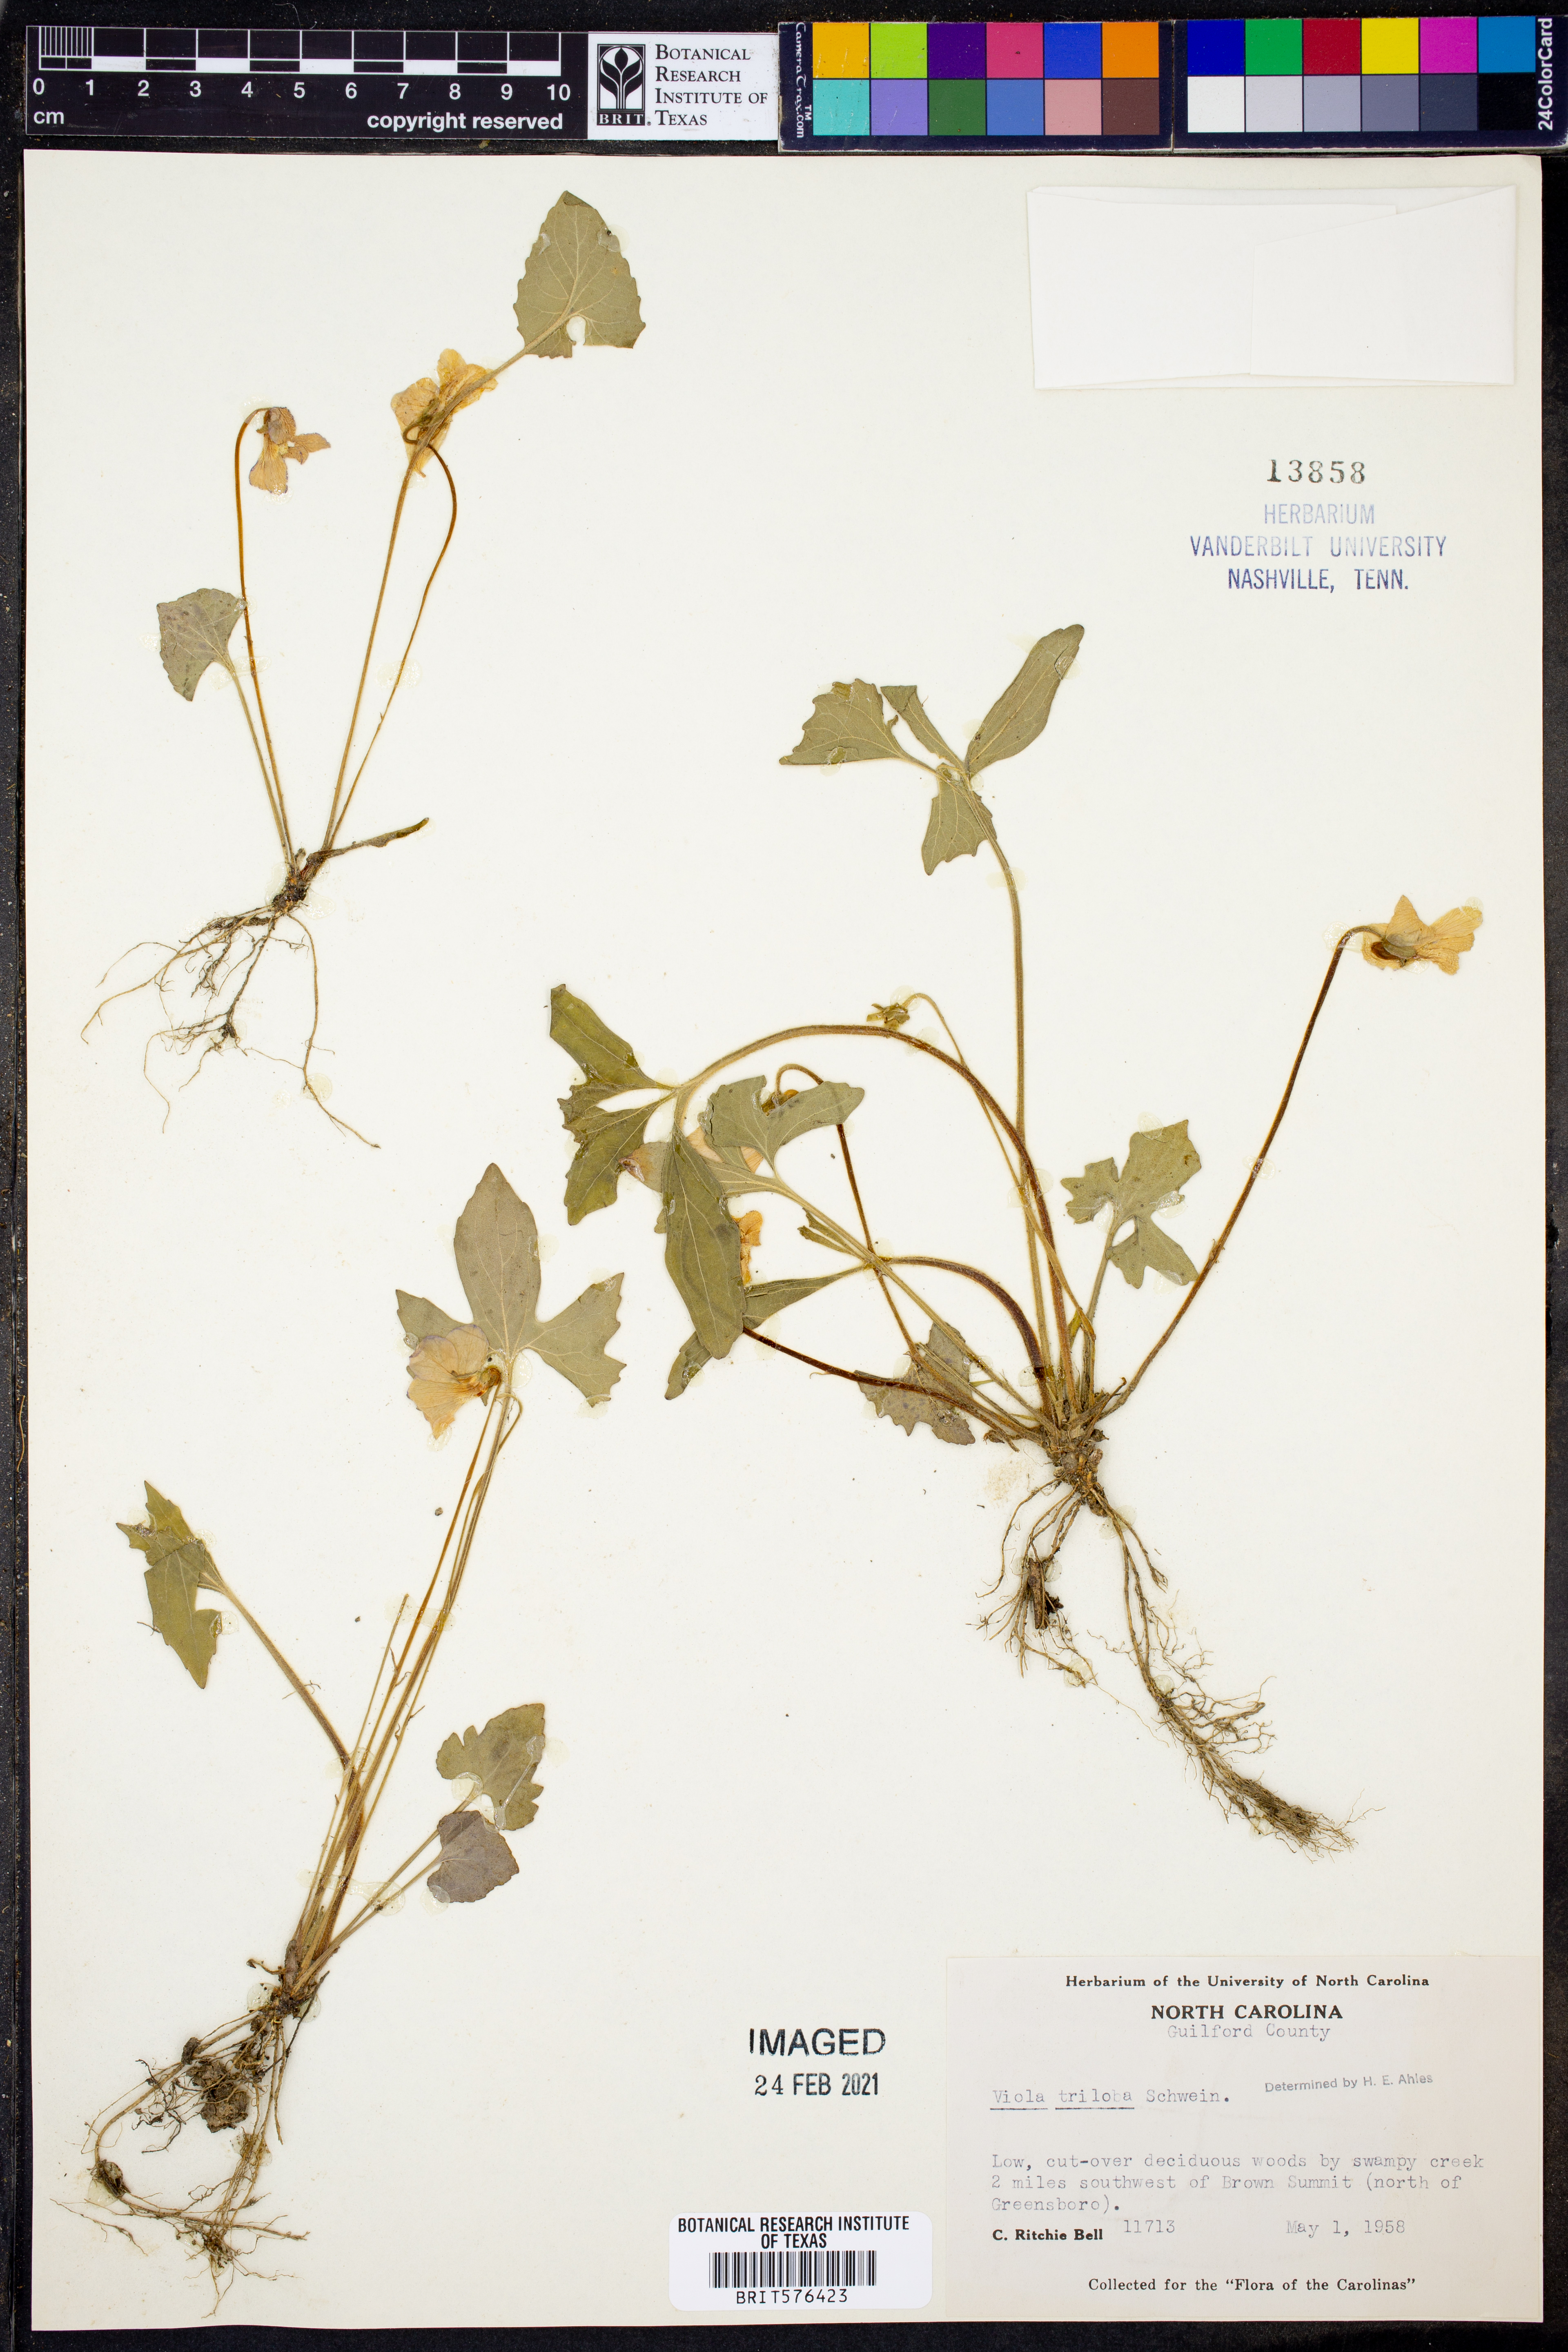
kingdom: Plantae
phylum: Tracheophyta
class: Magnoliopsida
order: Malpighiales
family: Violaceae
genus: Viola
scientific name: Viola palmata
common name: Early blue violet
